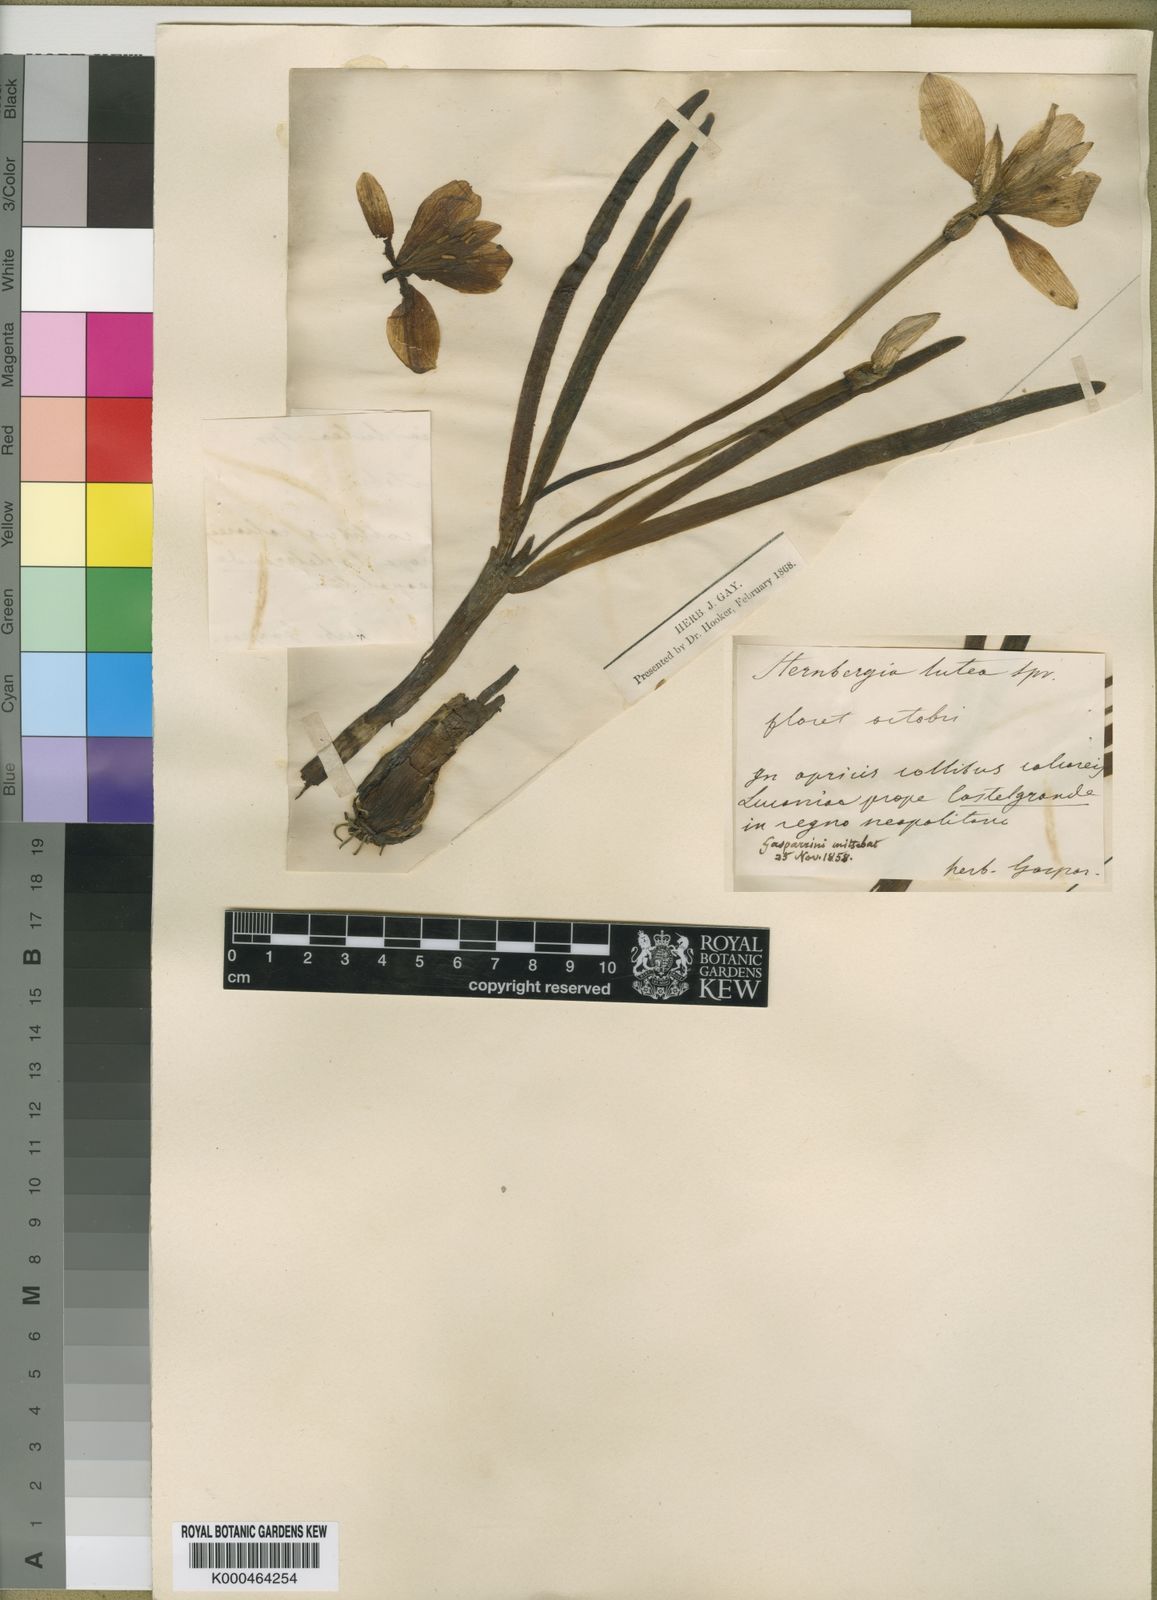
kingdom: Plantae
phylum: Tracheophyta
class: Liliopsida
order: Asparagales
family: Amaryllidaceae
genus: Sternbergia
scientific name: Sternbergia
